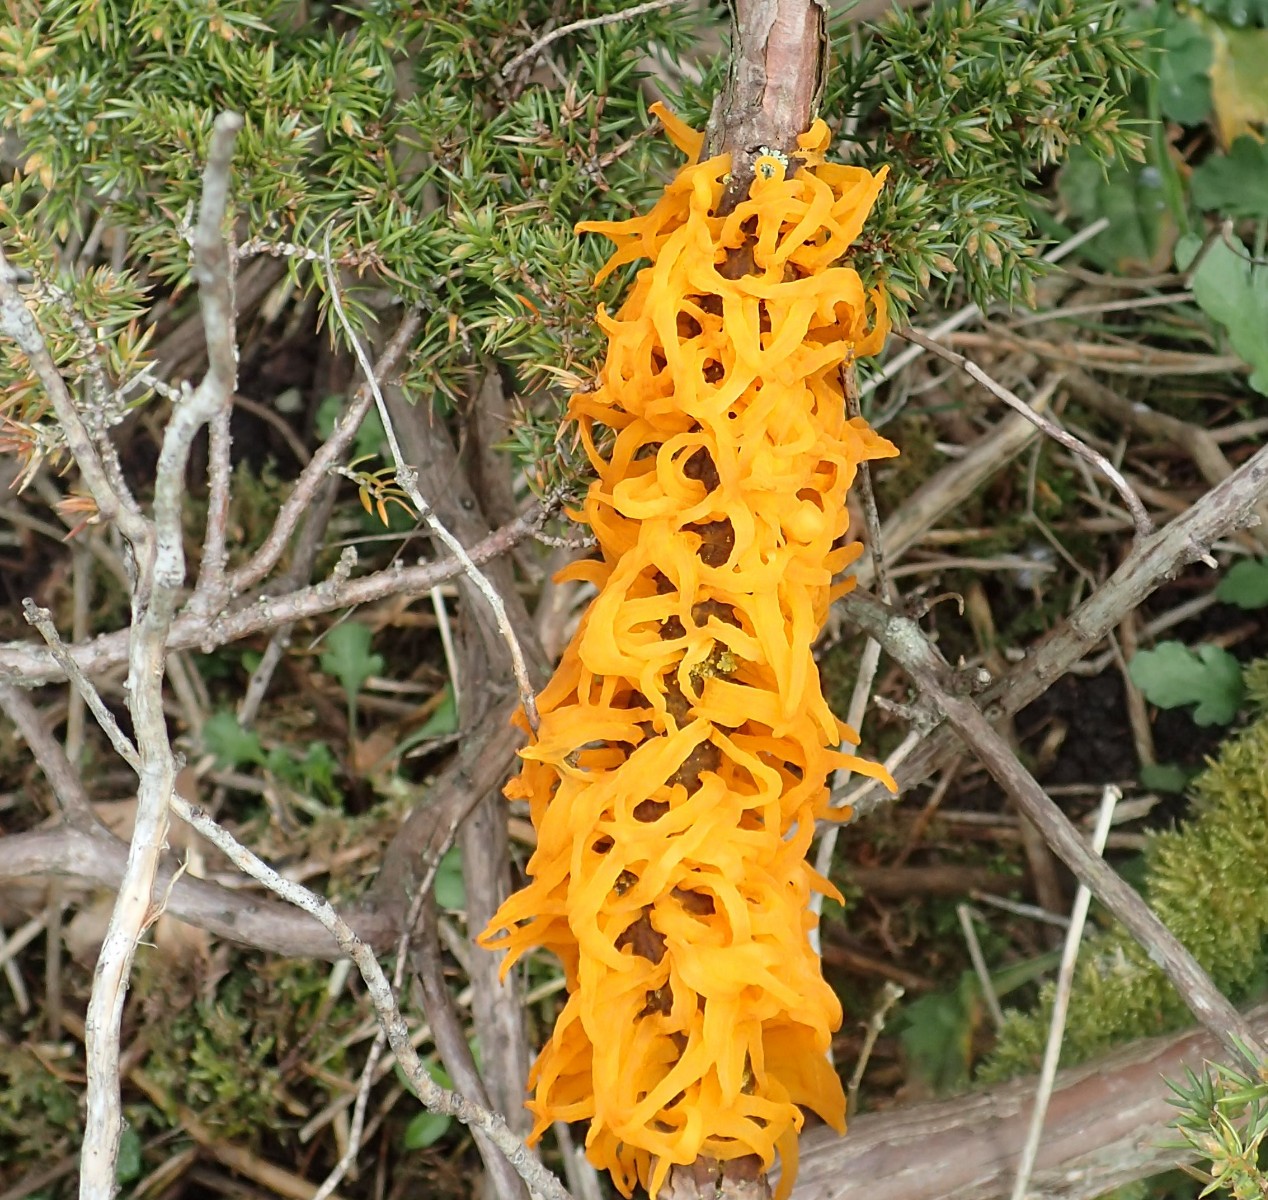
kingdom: Fungi
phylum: Basidiomycota
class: Pucciniomycetes
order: Pucciniales
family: Gymnosporangiaceae
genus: Gymnosporangium
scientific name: Gymnosporangium clavariiforme
